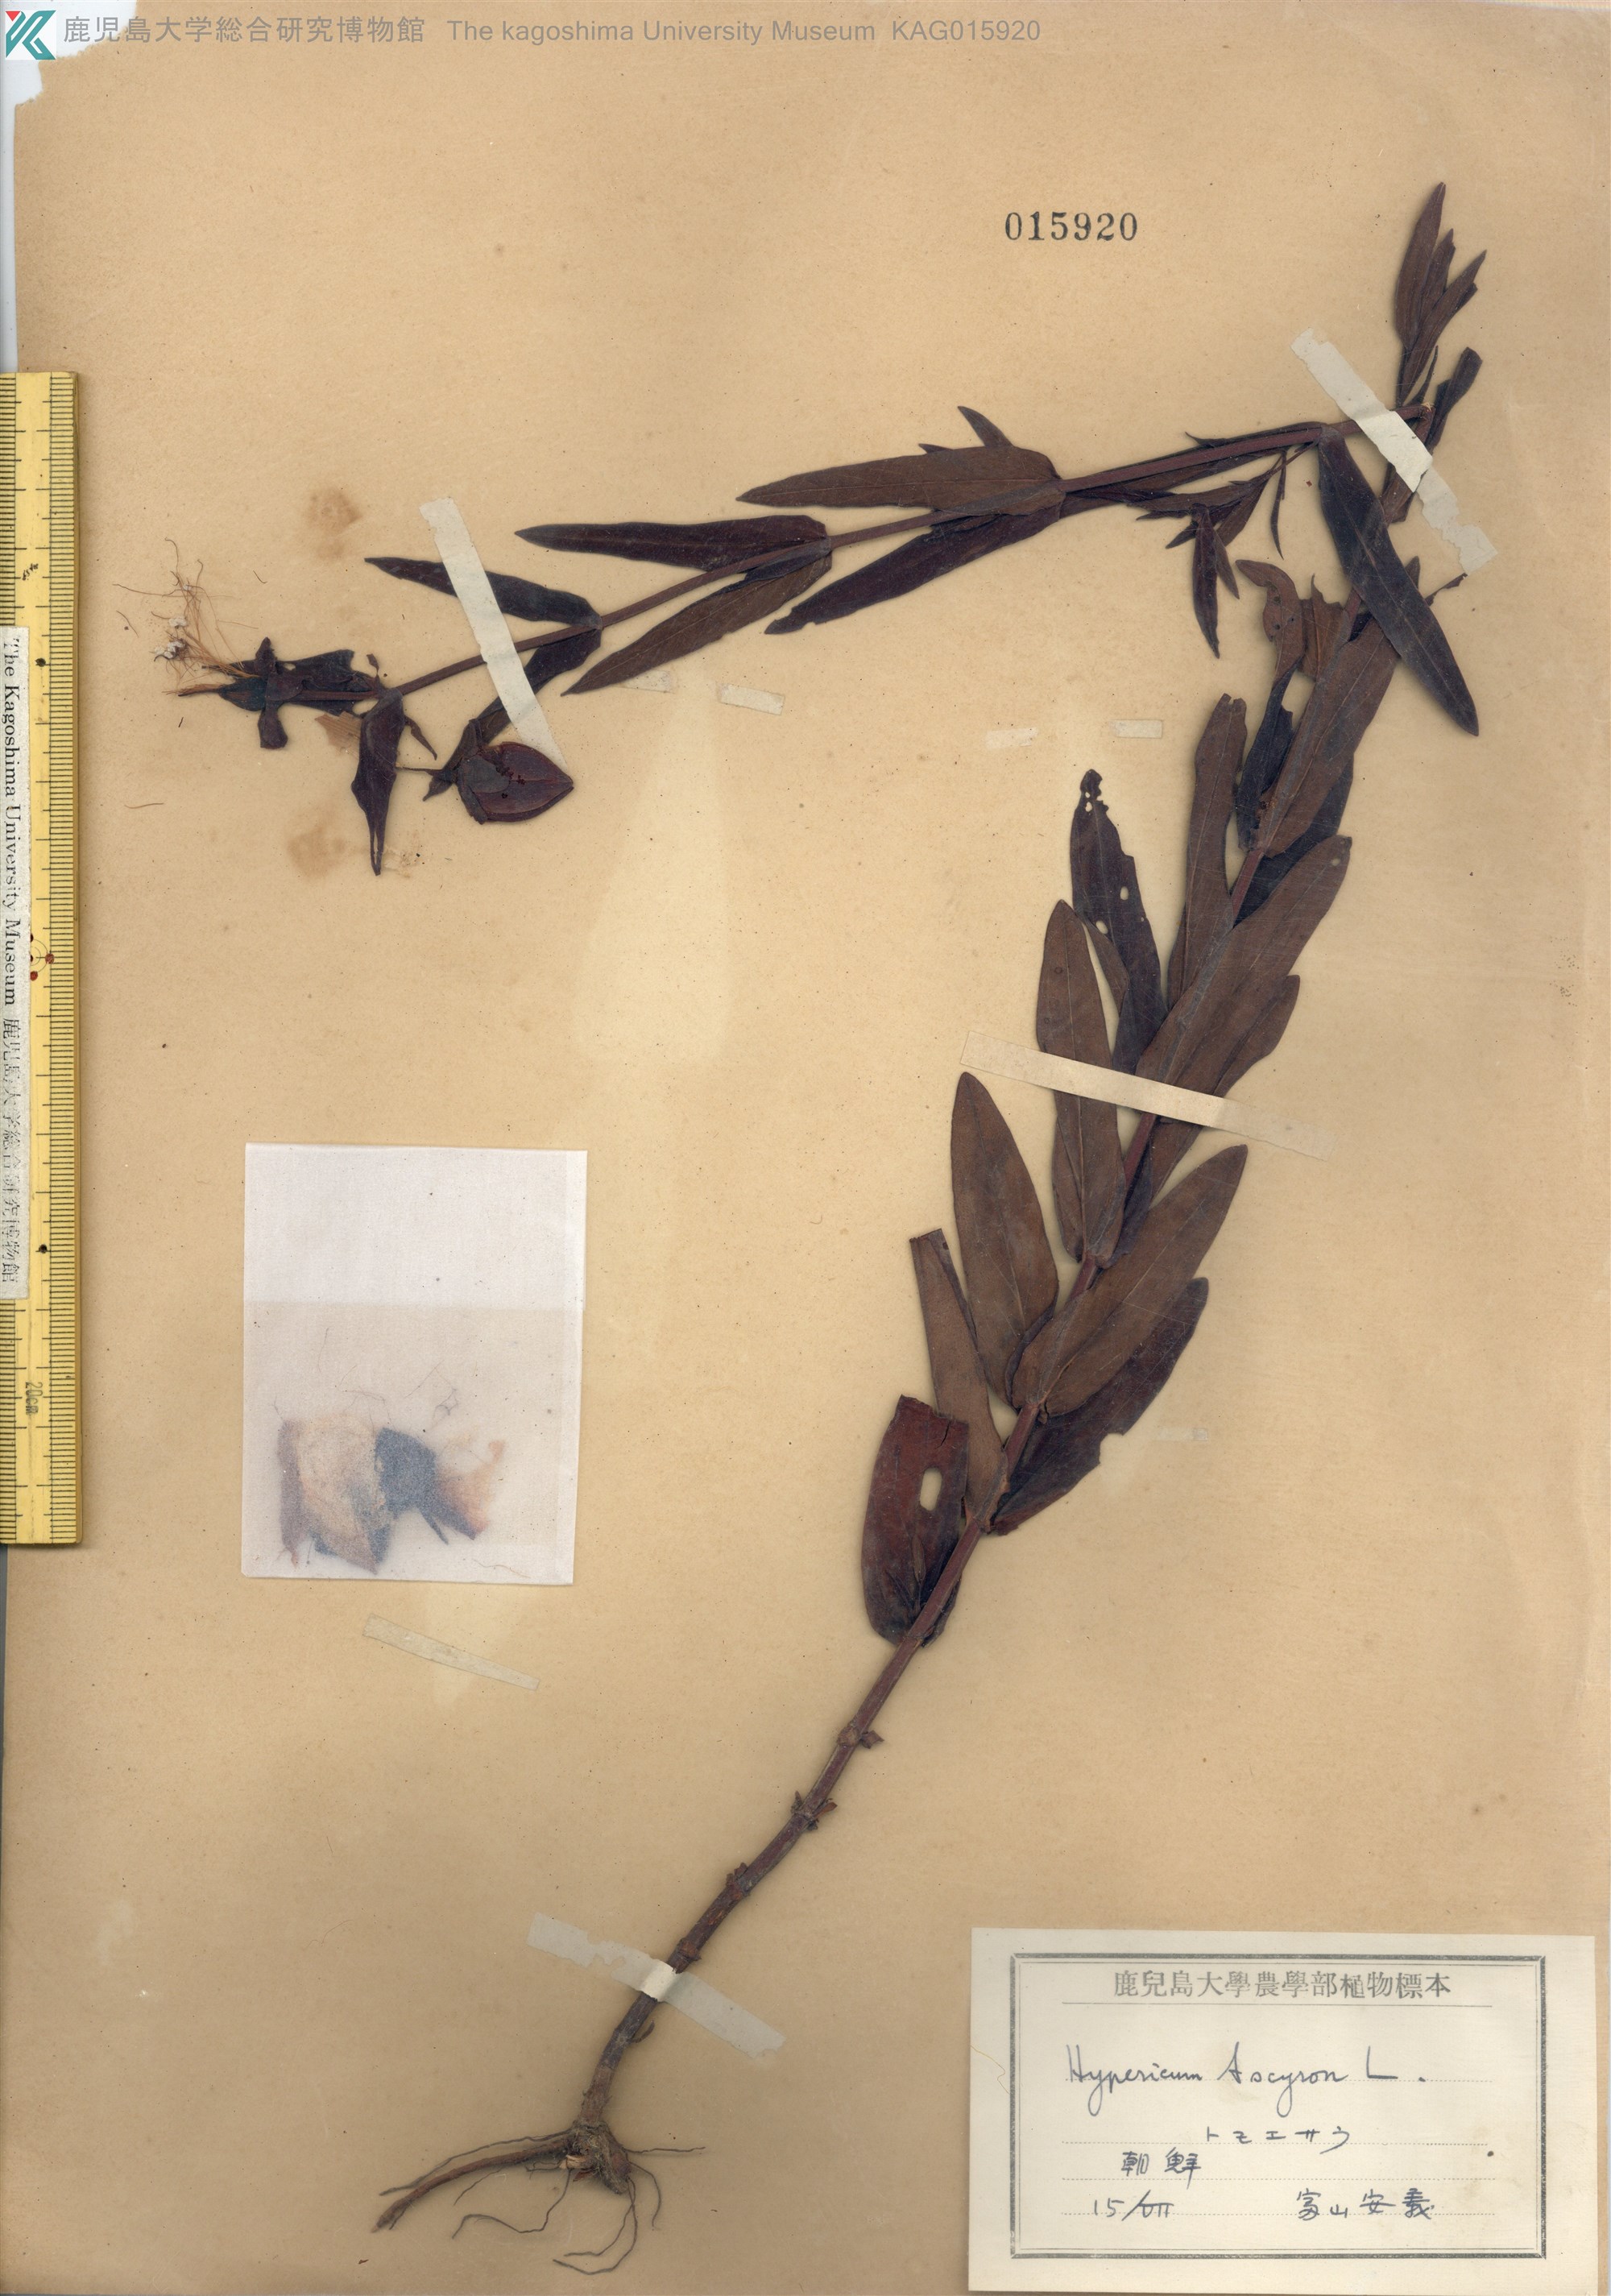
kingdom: Plantae
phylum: Tracheophyta
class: Magnoliopsida
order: Malpighiales
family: Hypericaceae
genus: Hypericum
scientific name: Hypericum ascyron
